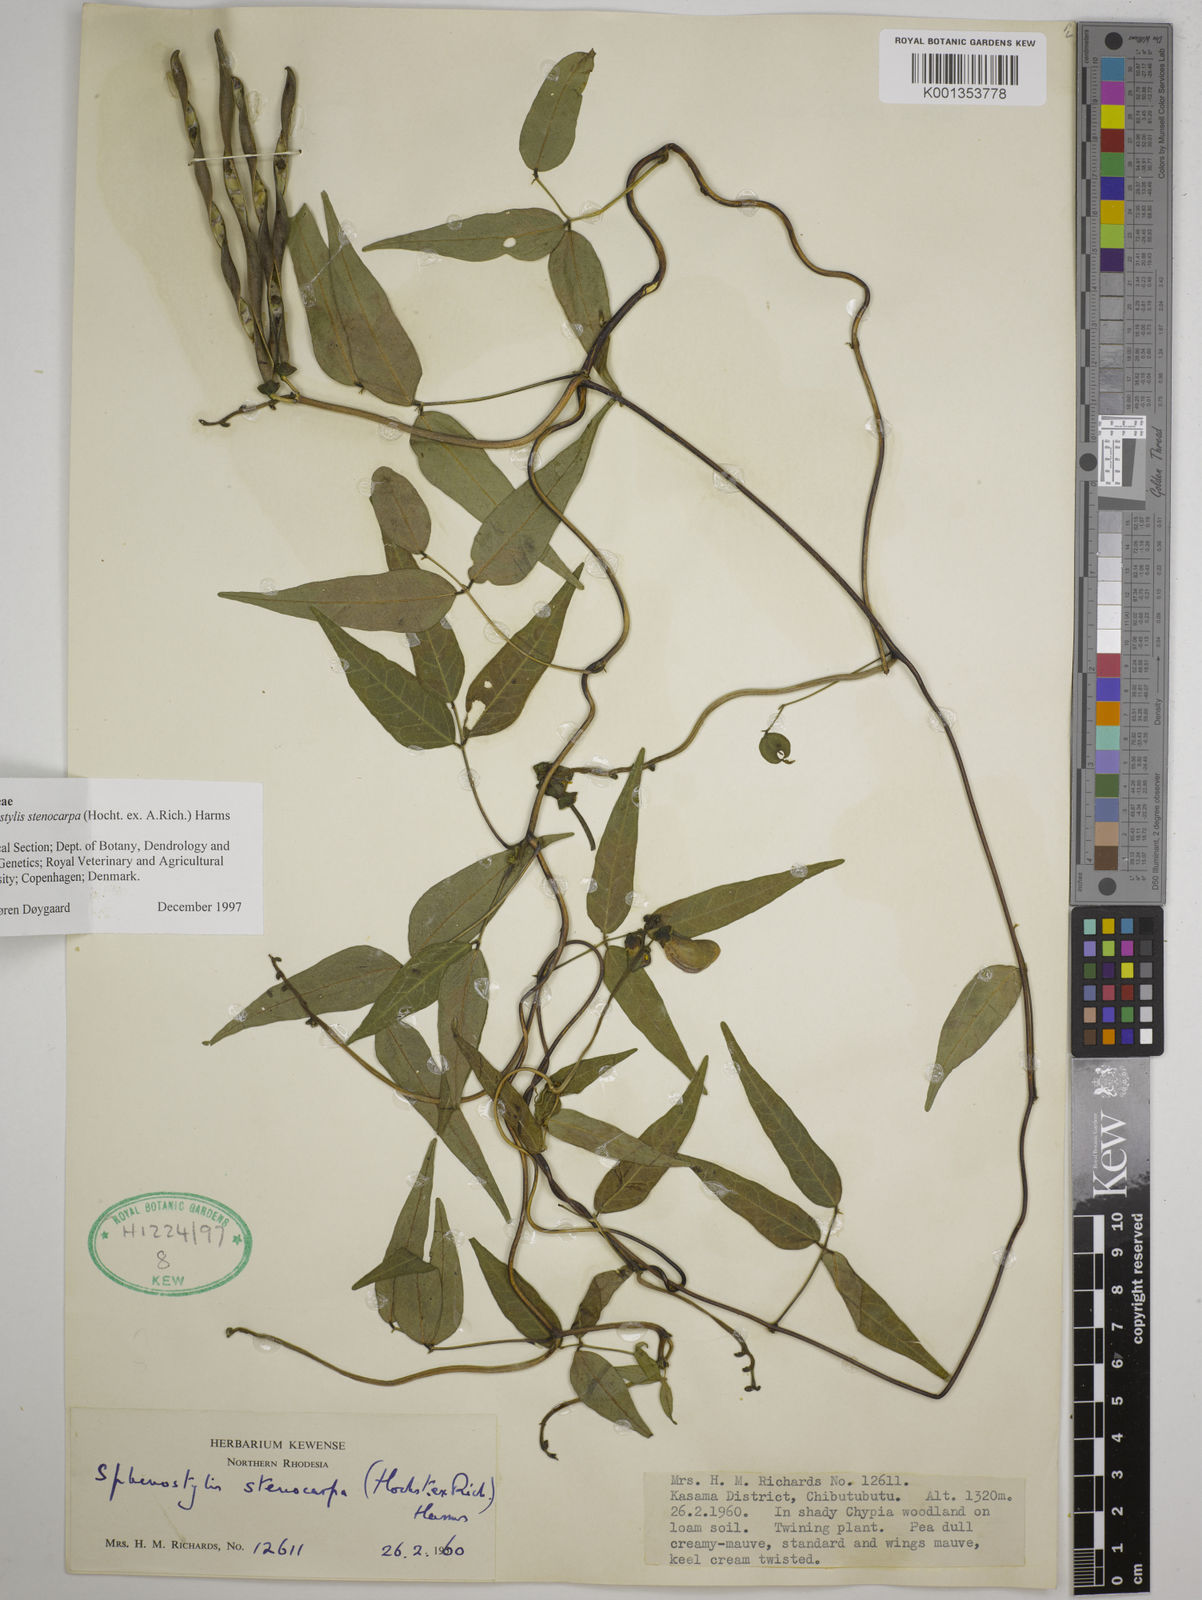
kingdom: Plantae
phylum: Tracheophyta
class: Magnoliopsida
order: Fabales
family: Fabaceae
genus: Sphenostylis
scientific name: Sphenostylis stenocarpa
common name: Yam-pea
